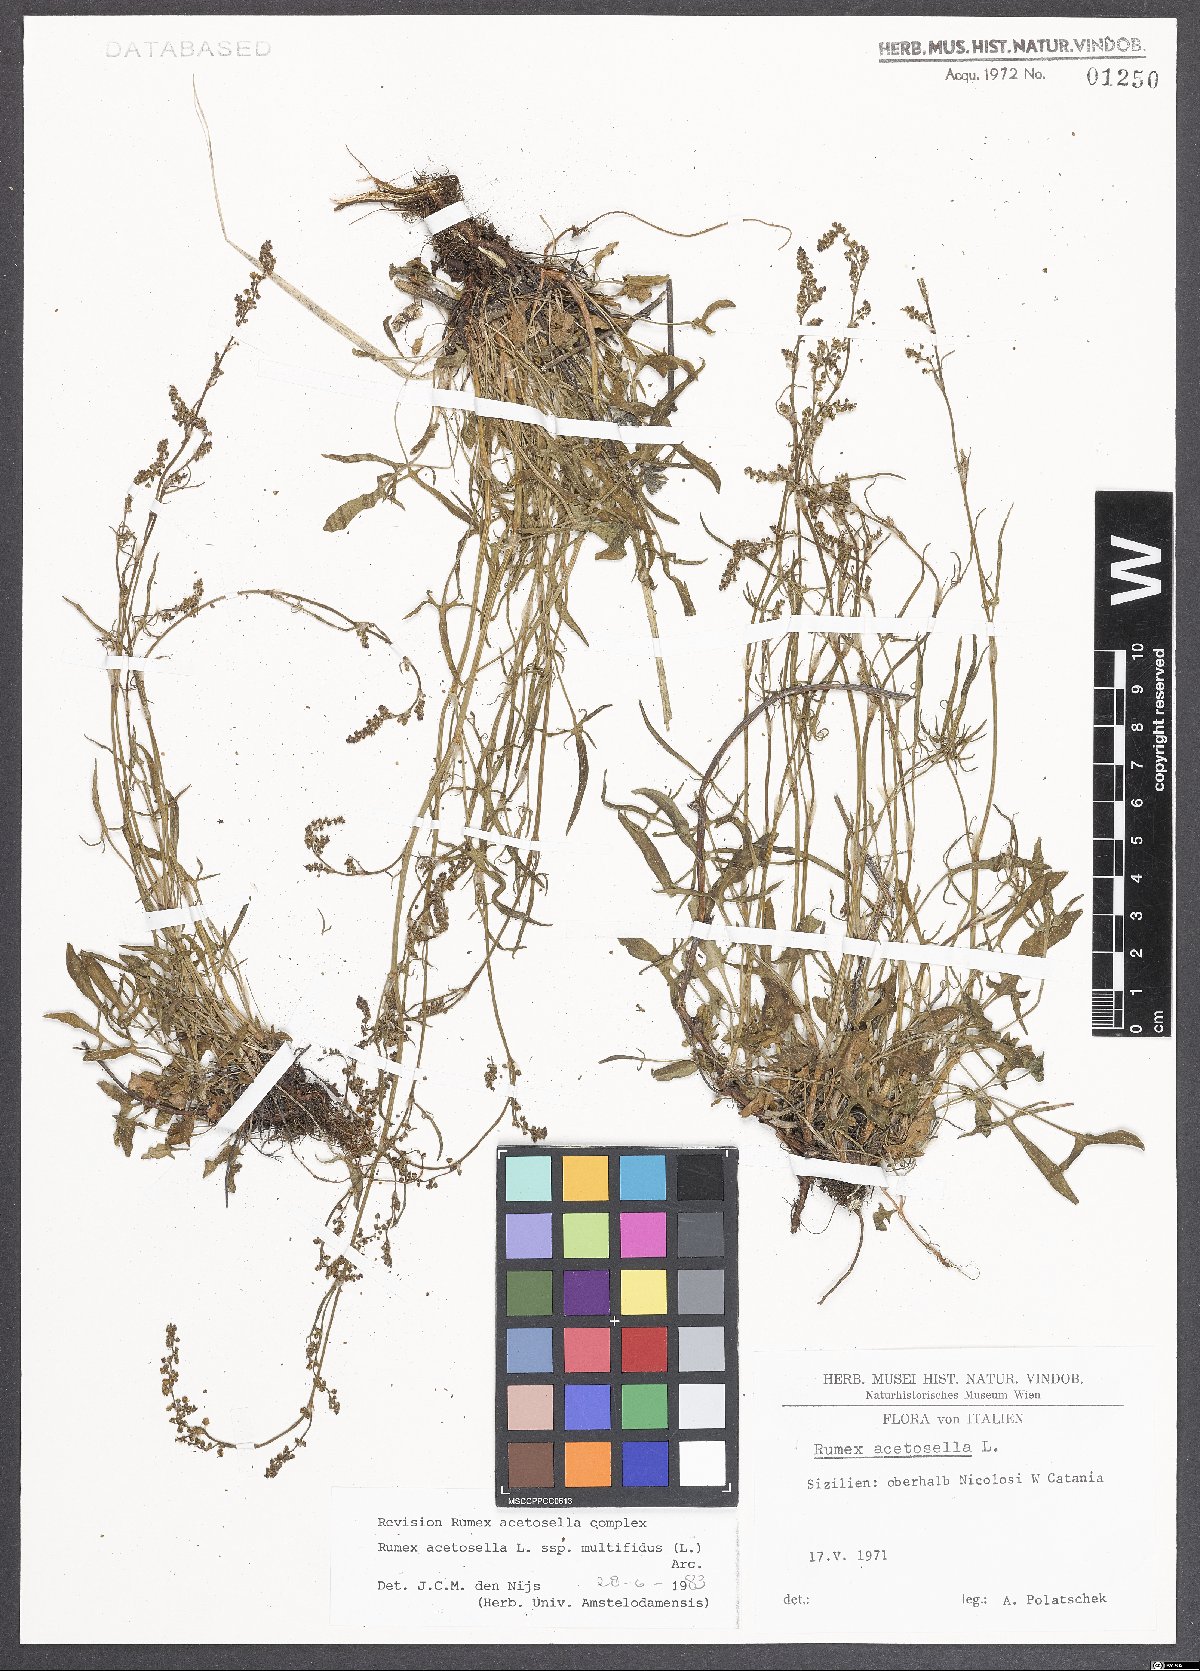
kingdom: Plantae
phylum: Tracheophyta
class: Magnoliopsida
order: Caryophyllales
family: Polygonaceae
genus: Rumex
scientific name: Rumex acetosella
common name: Common sheep sorrel
